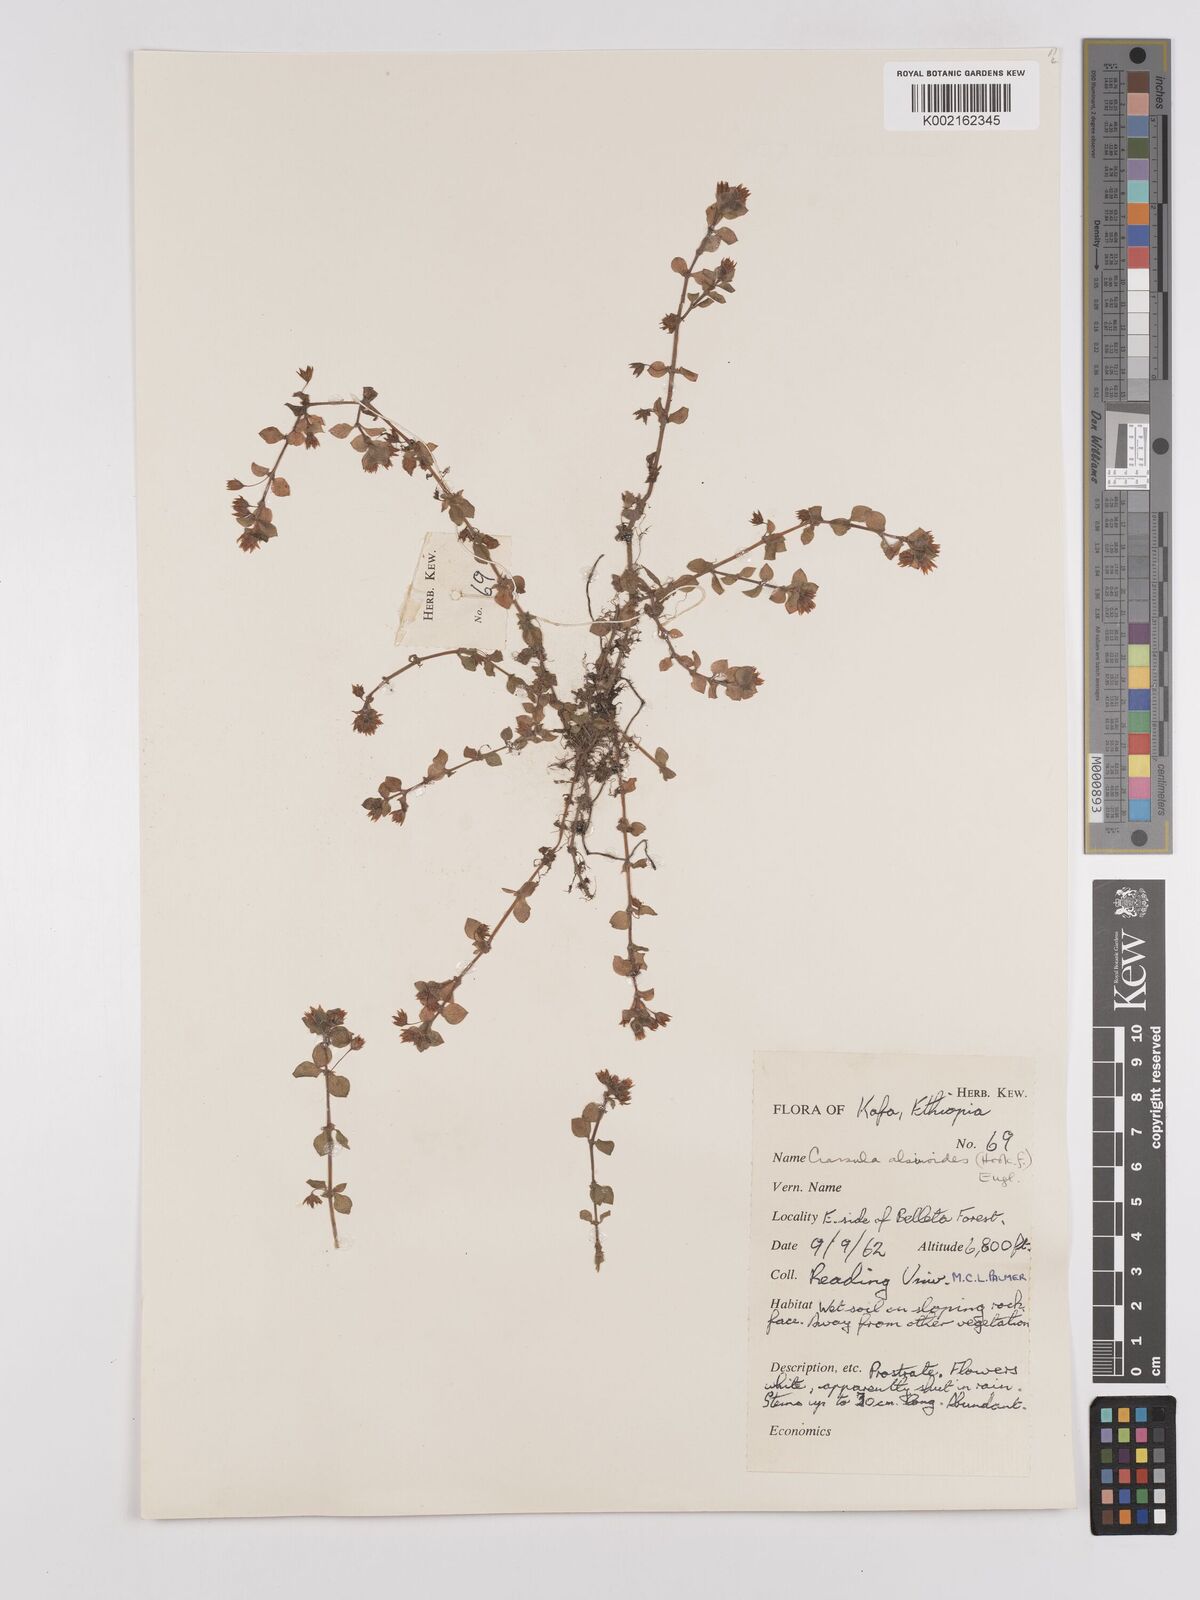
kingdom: Plantae
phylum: Tracheophyta
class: Magnoliopsida
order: Saxifragales
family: Crassulaceae
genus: Crassula
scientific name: Crassula alsinoides
